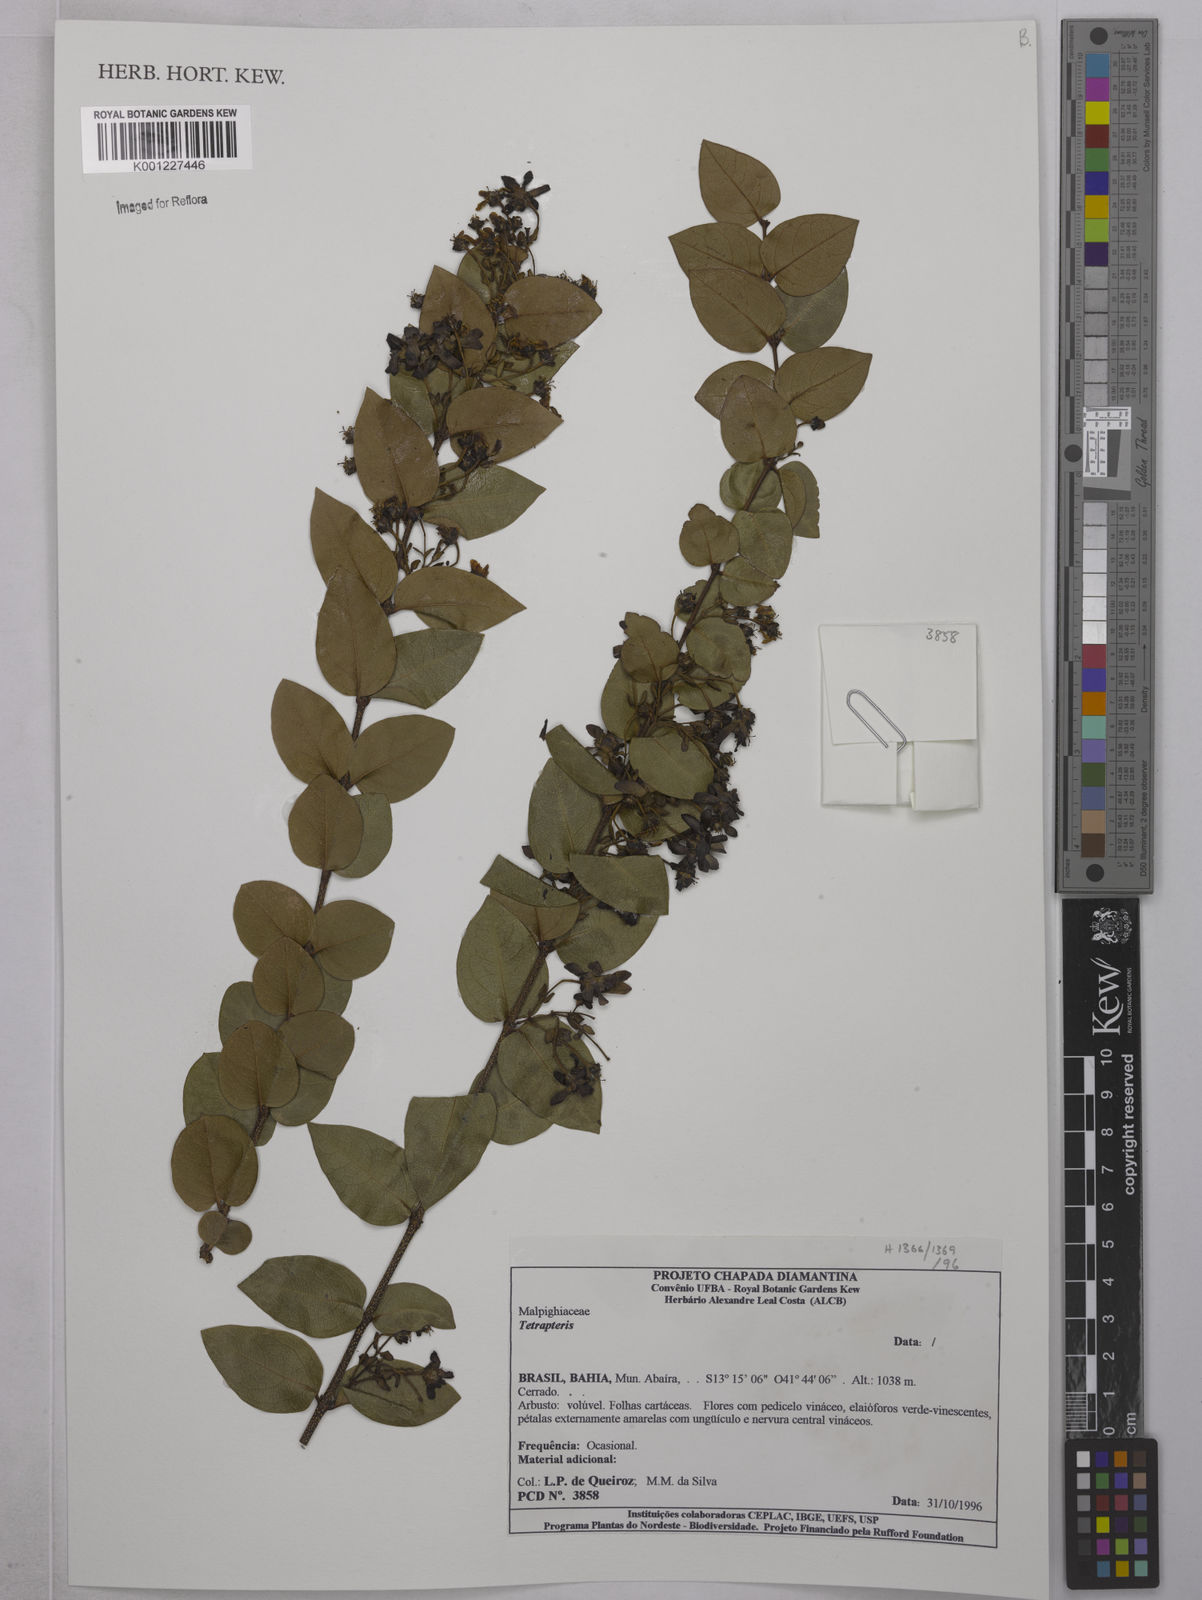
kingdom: Plantae
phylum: Tracheophyta
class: Magnoliopsida
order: Malpighiales
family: Malpighiaceae
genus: Tetrapterys
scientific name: Tetrapterys
